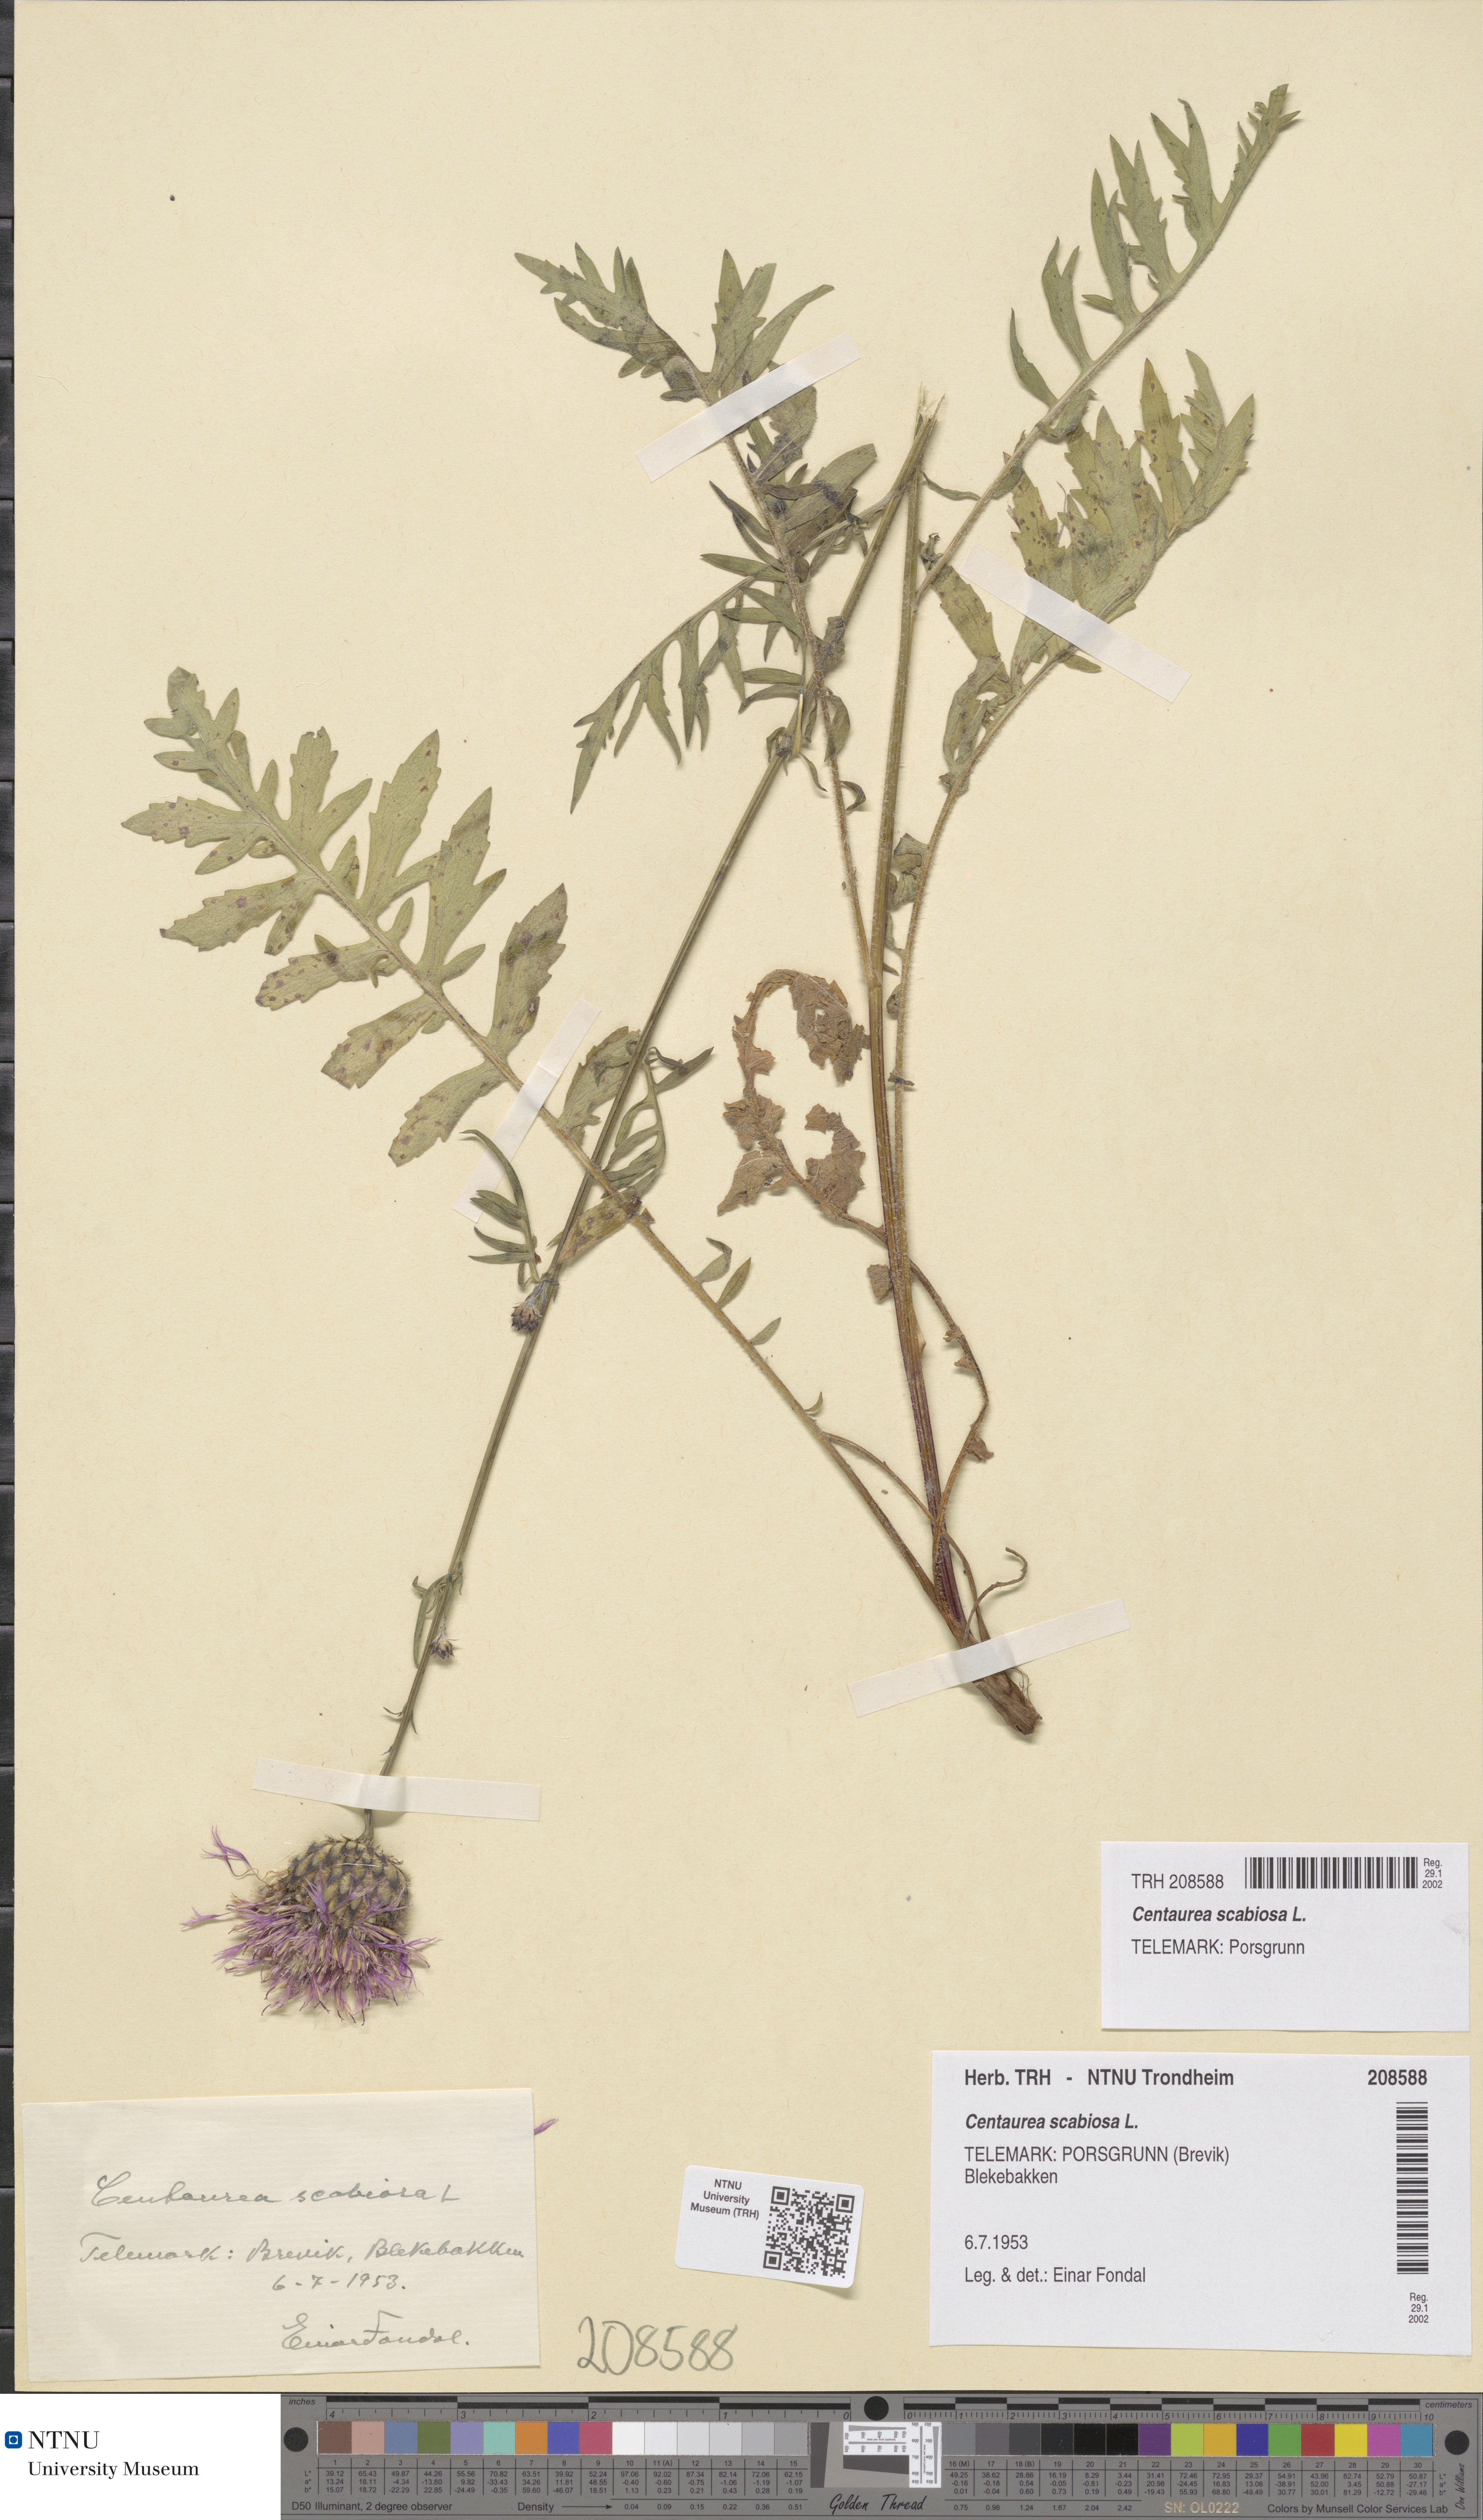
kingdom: Plantae
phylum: Tracheophyta
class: Magnoliopsida
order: Asterales
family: Asteraceae
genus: Centaurea
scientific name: Centaurea scabiosa
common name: Greater knapweed
